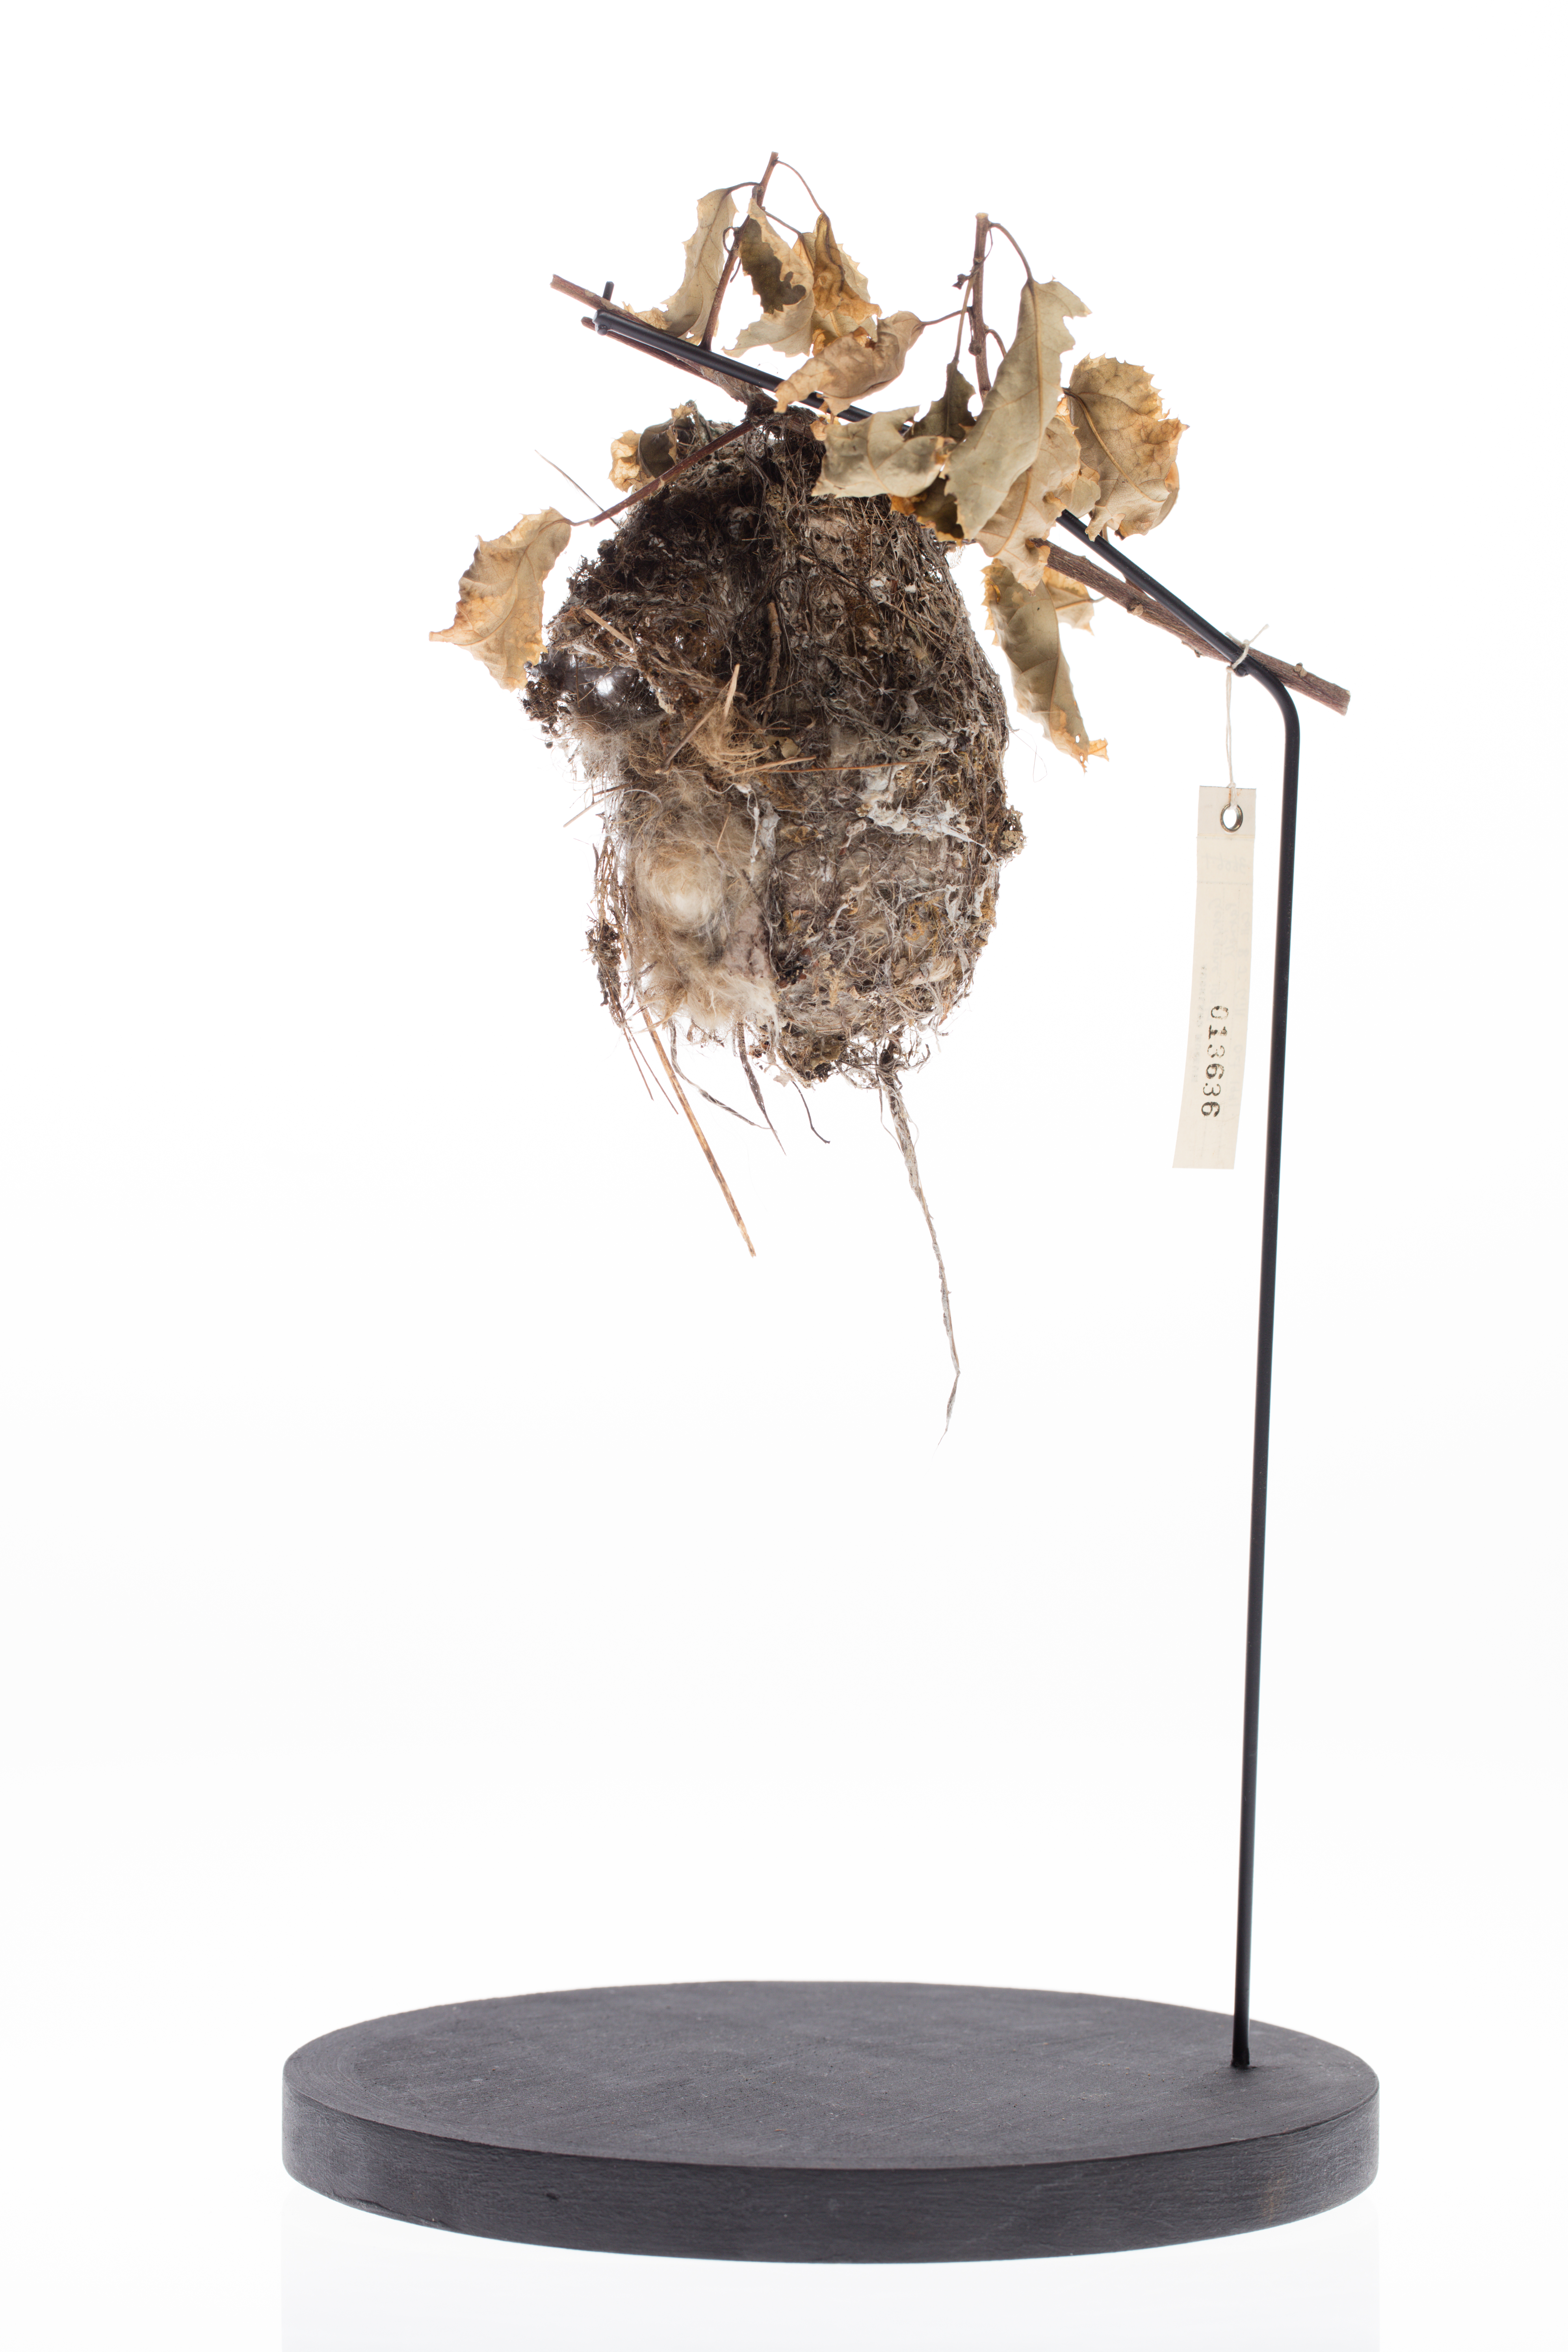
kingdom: Animalia
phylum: Chordata
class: Aves
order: Passeriformes
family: Acanthizidae
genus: Gerygone
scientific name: Gerygone igata
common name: Grey gerygone
